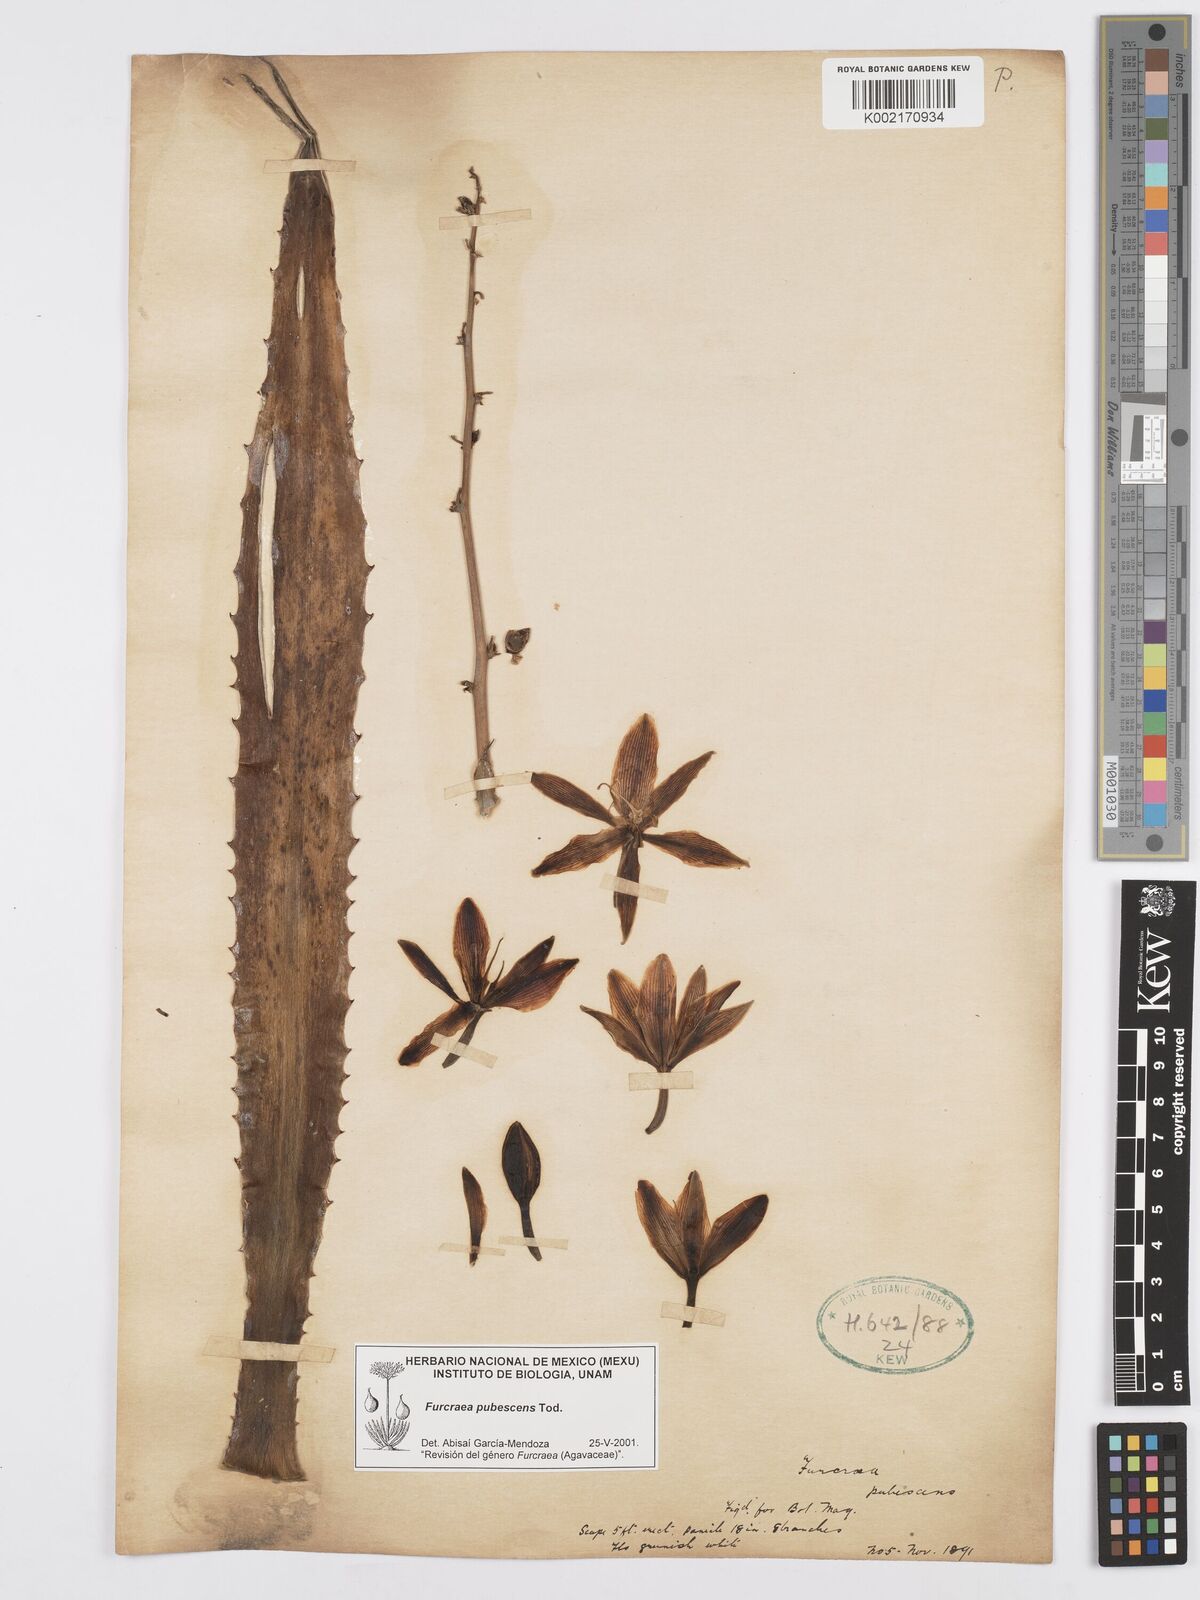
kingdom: Plantae
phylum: Tracheophyta
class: Liliopsida
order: Asparagales
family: Asparagaceae
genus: Furcraea
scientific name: Furcraea pubescens
